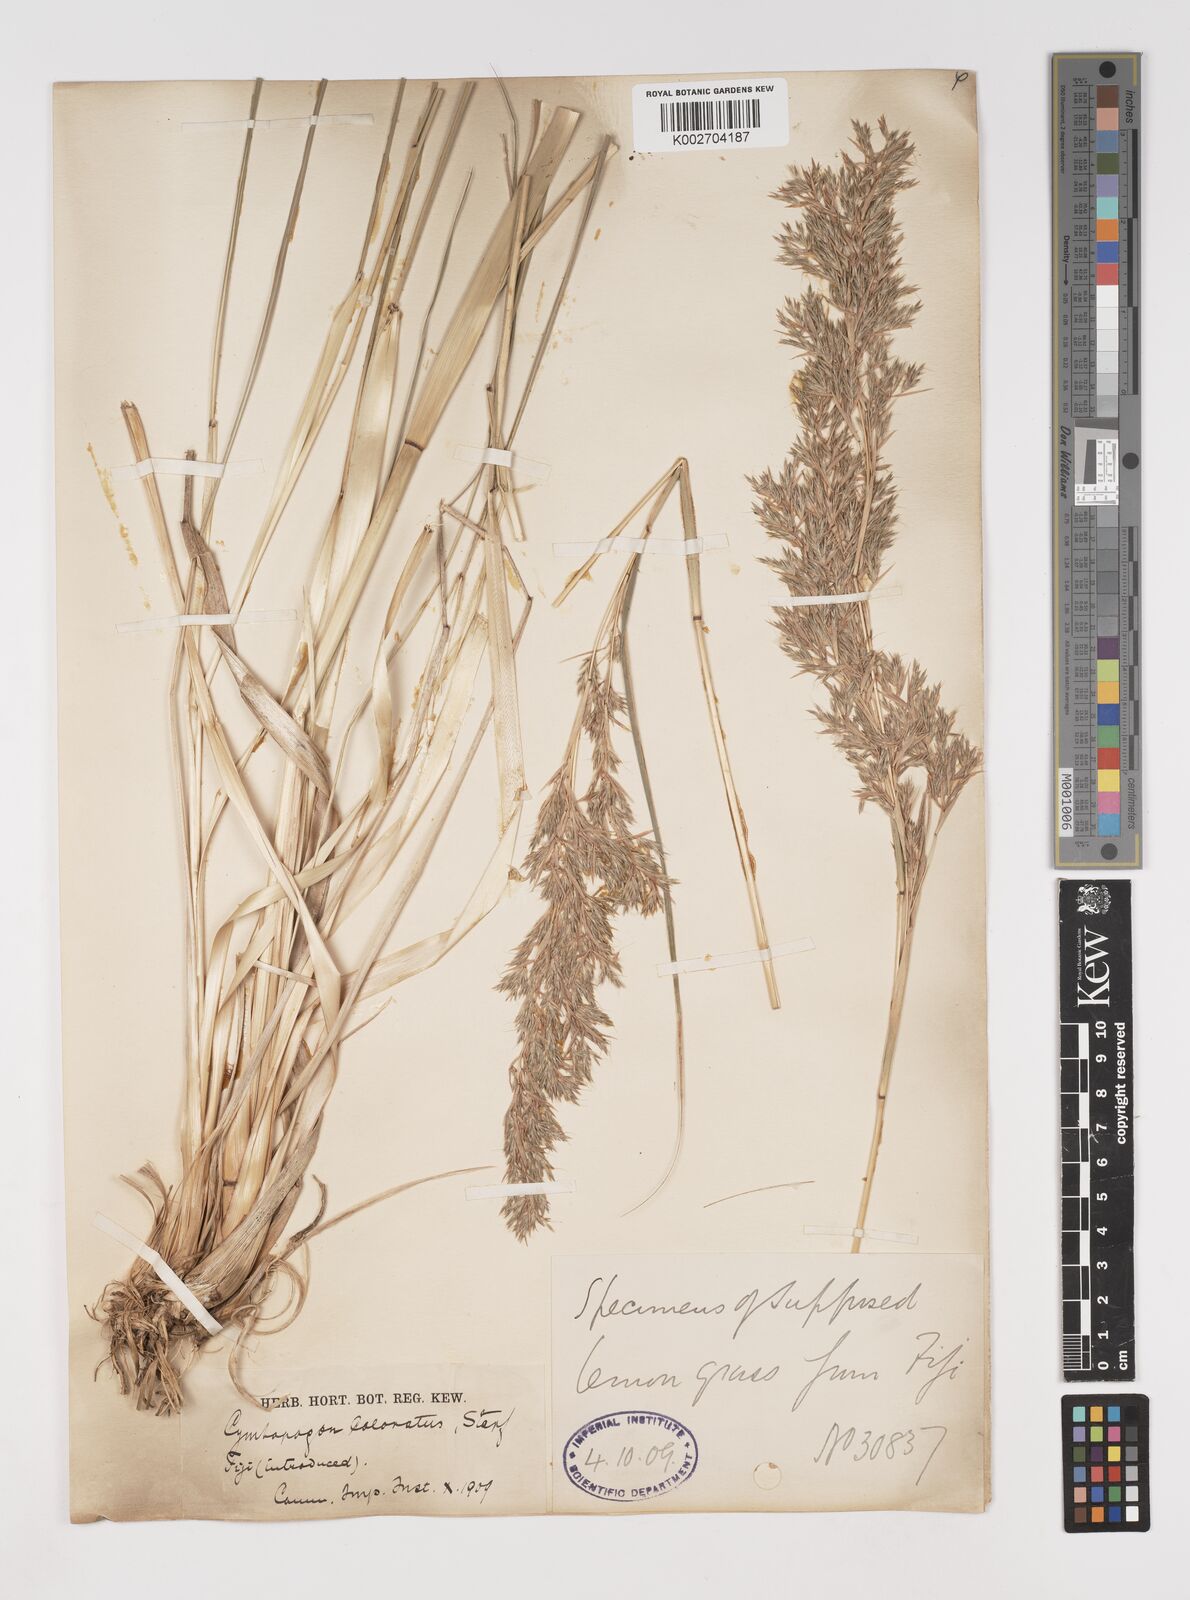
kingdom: Plantae
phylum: Tracheophyta
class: Liliopsida
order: Poales
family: Poaceae
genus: Cymbopogon
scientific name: Cymbopogon coloratus
